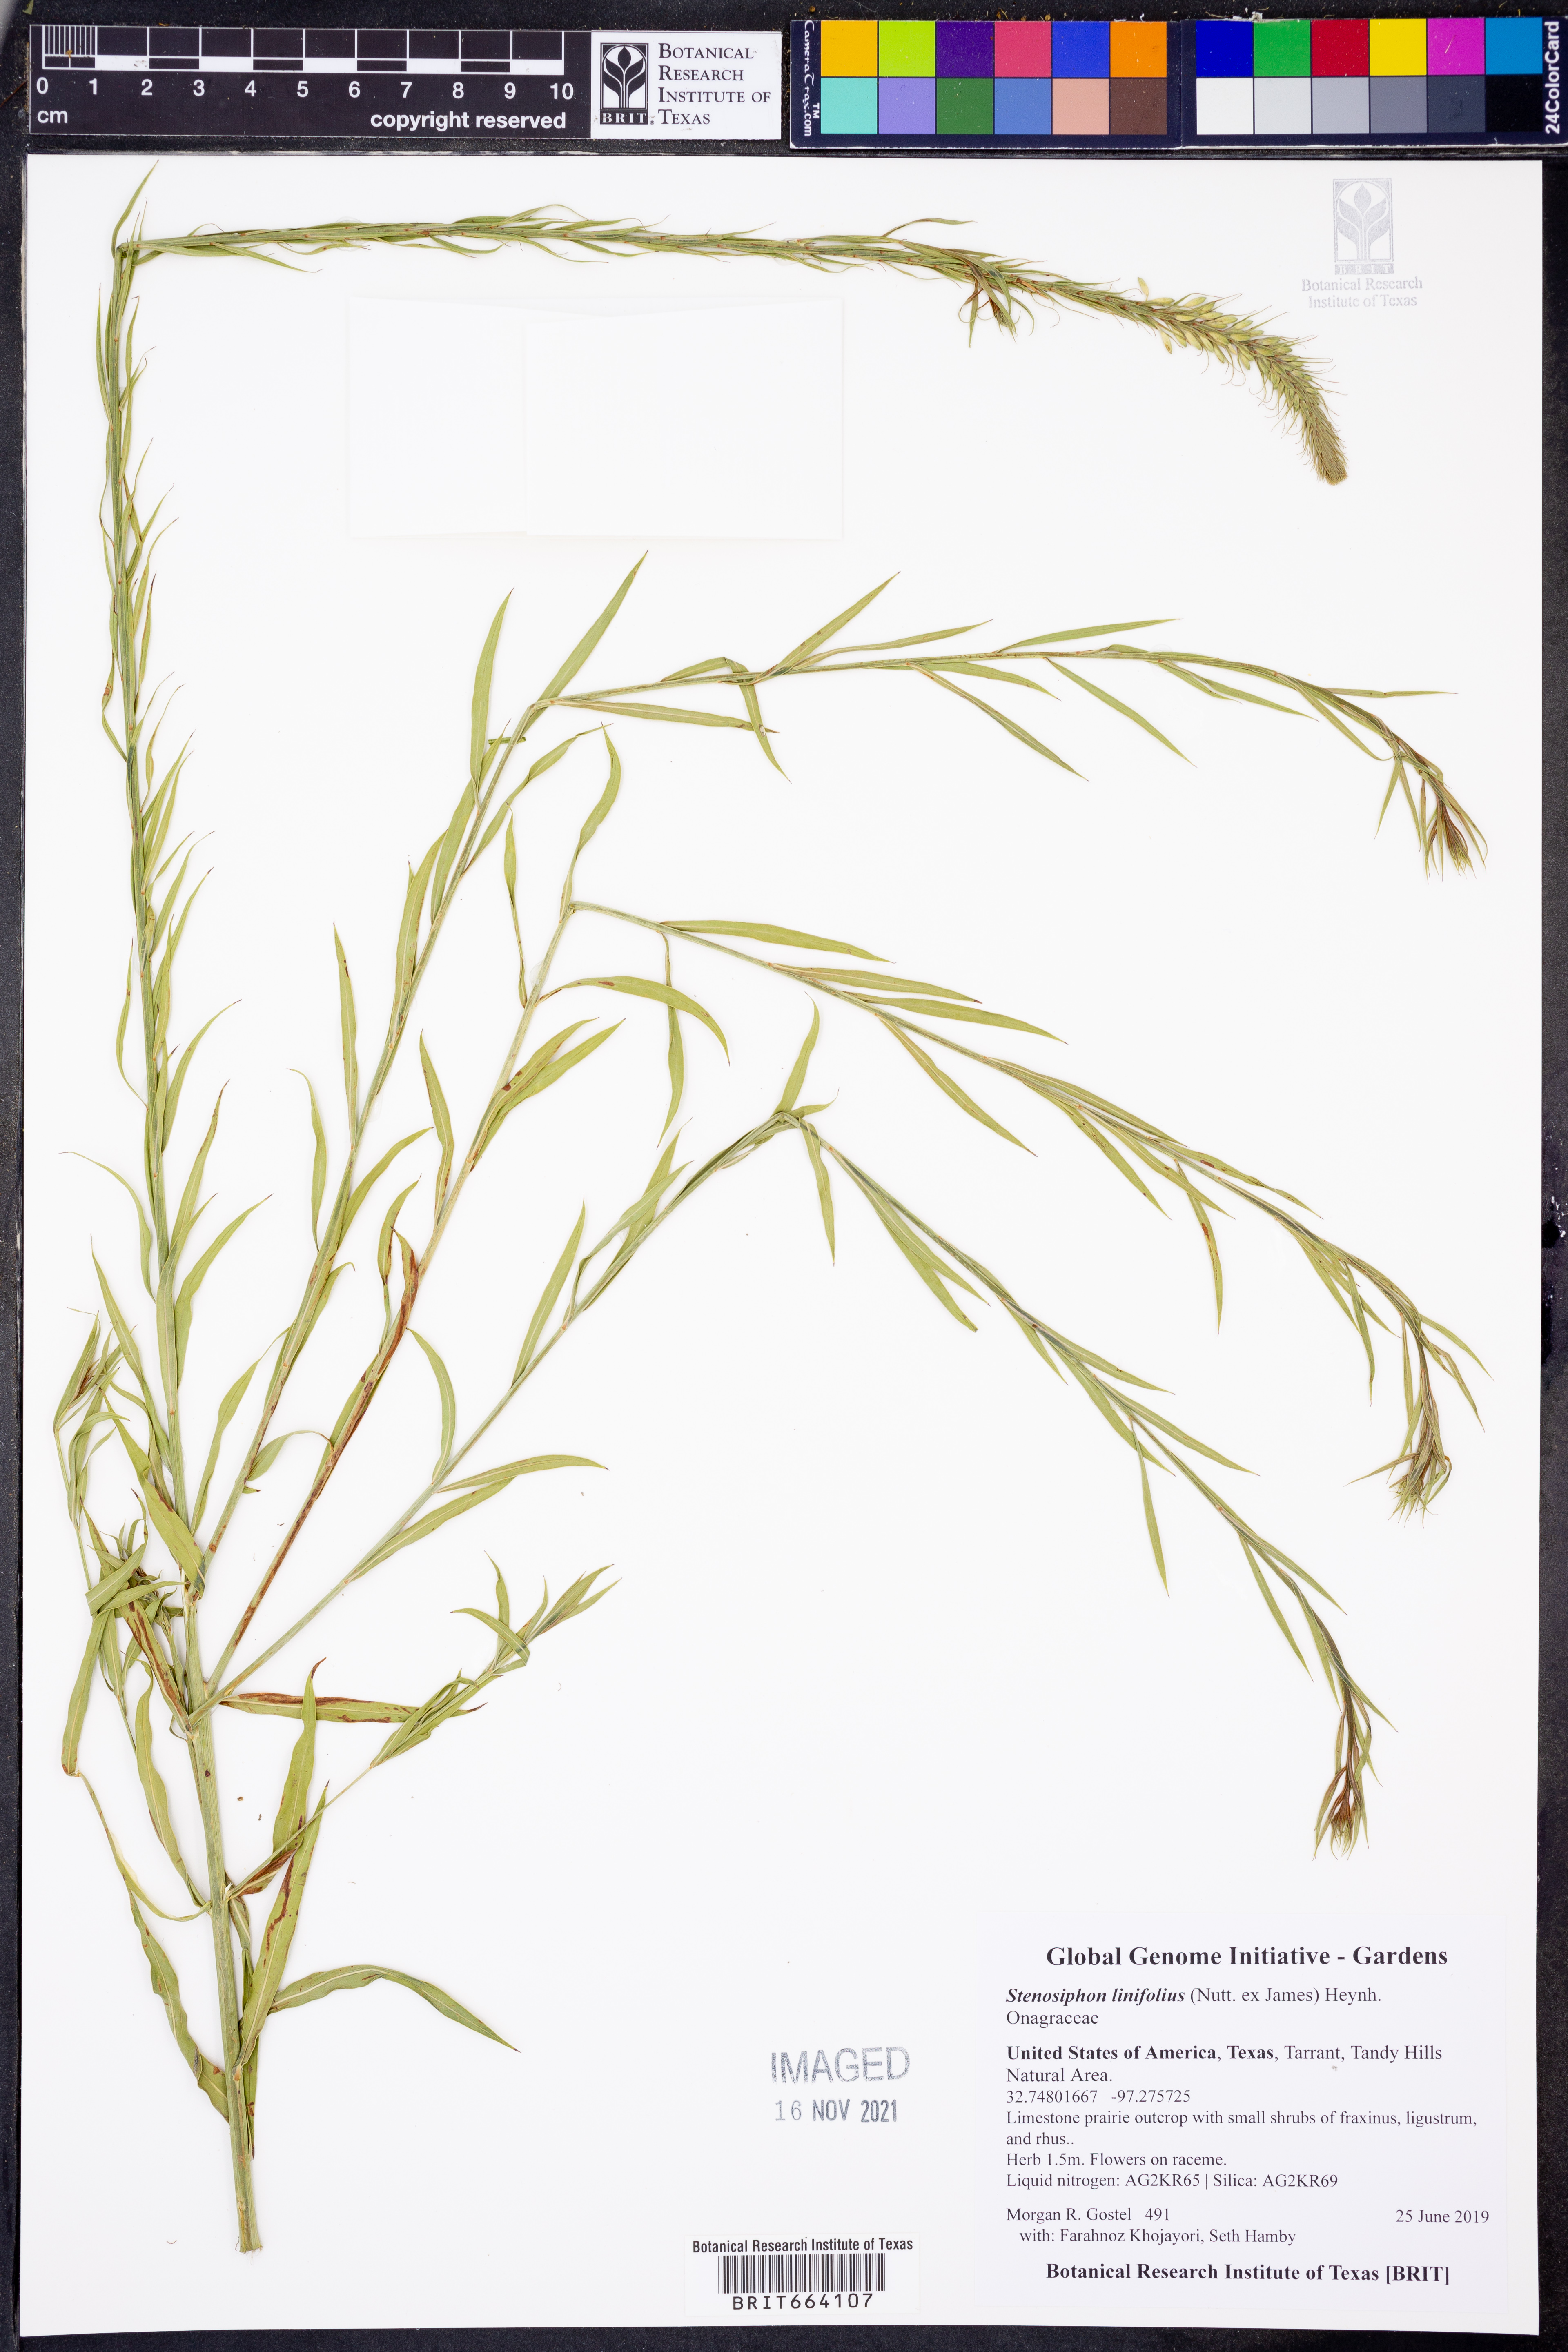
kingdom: Plantae
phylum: Tracheophyta
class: Magnoliopsida
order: Myrtales
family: Onagraceae
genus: Oenothera
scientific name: Oenothera glaucifolia
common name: False gaura
